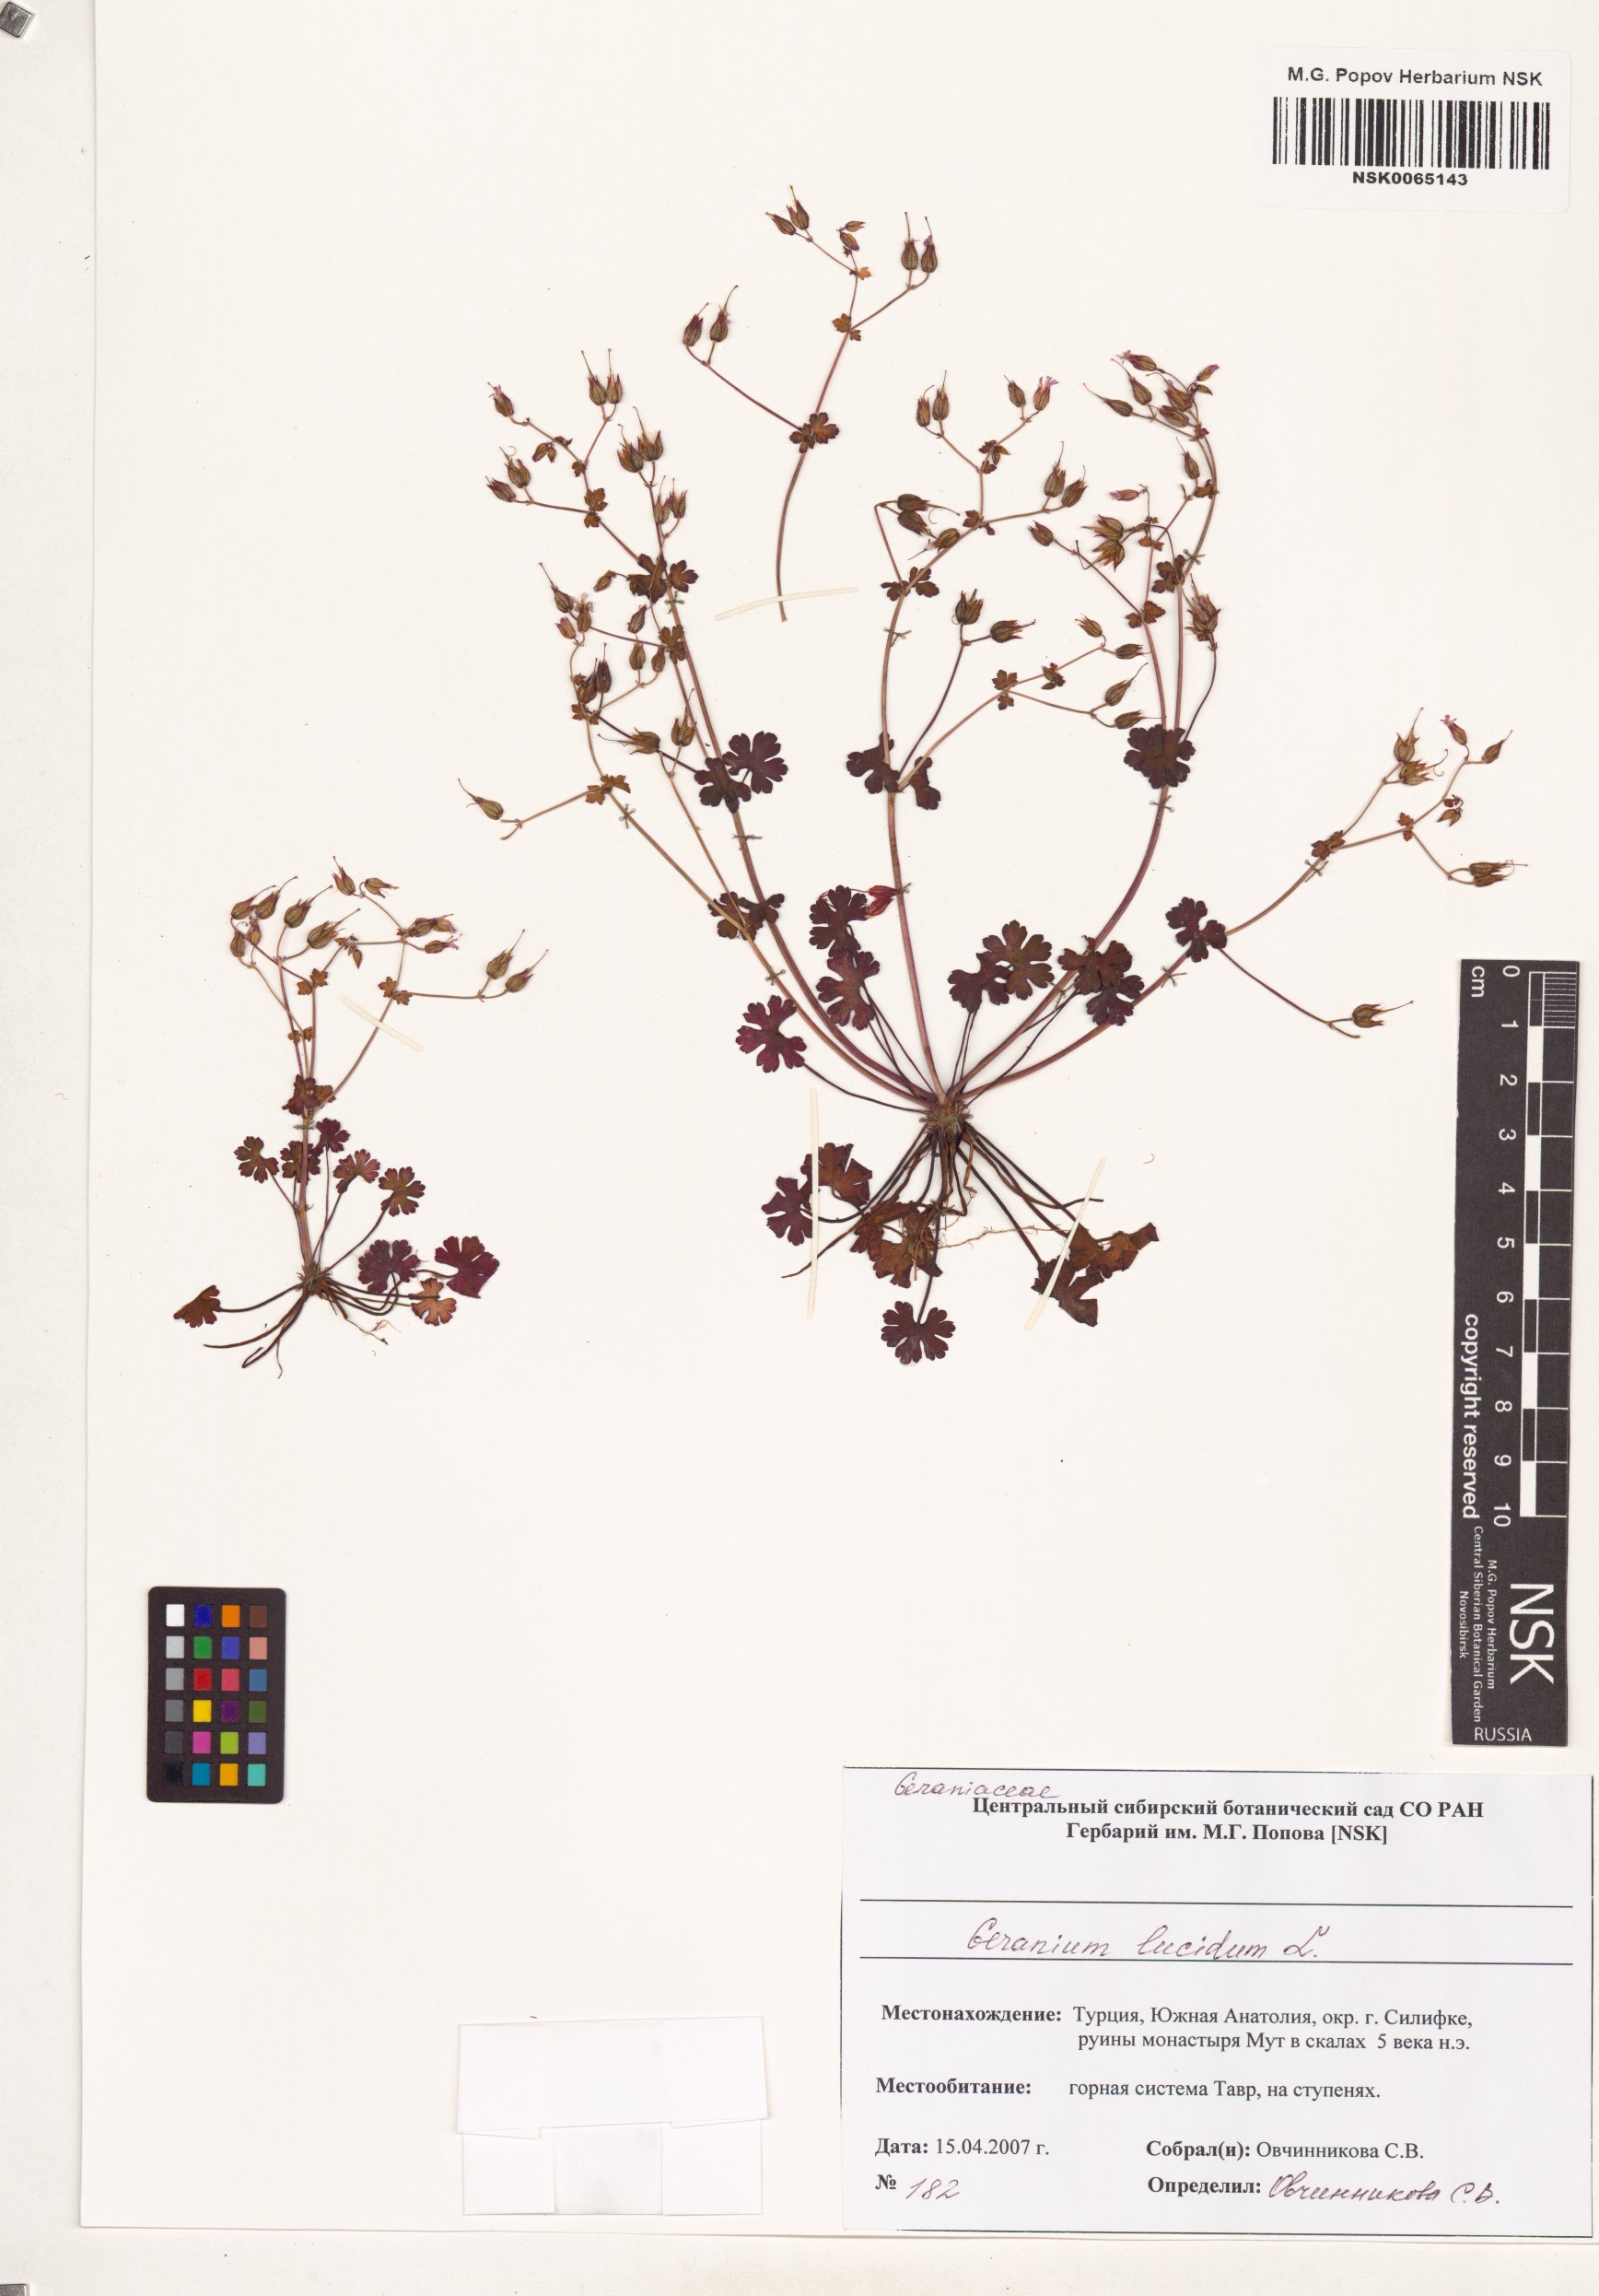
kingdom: Plantae
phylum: Tracheophyta
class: Magnoliopsida
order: Geraniales
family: Geraniaceae
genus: Geranium
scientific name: Geranium lucidum
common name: Shining crane's-bill
